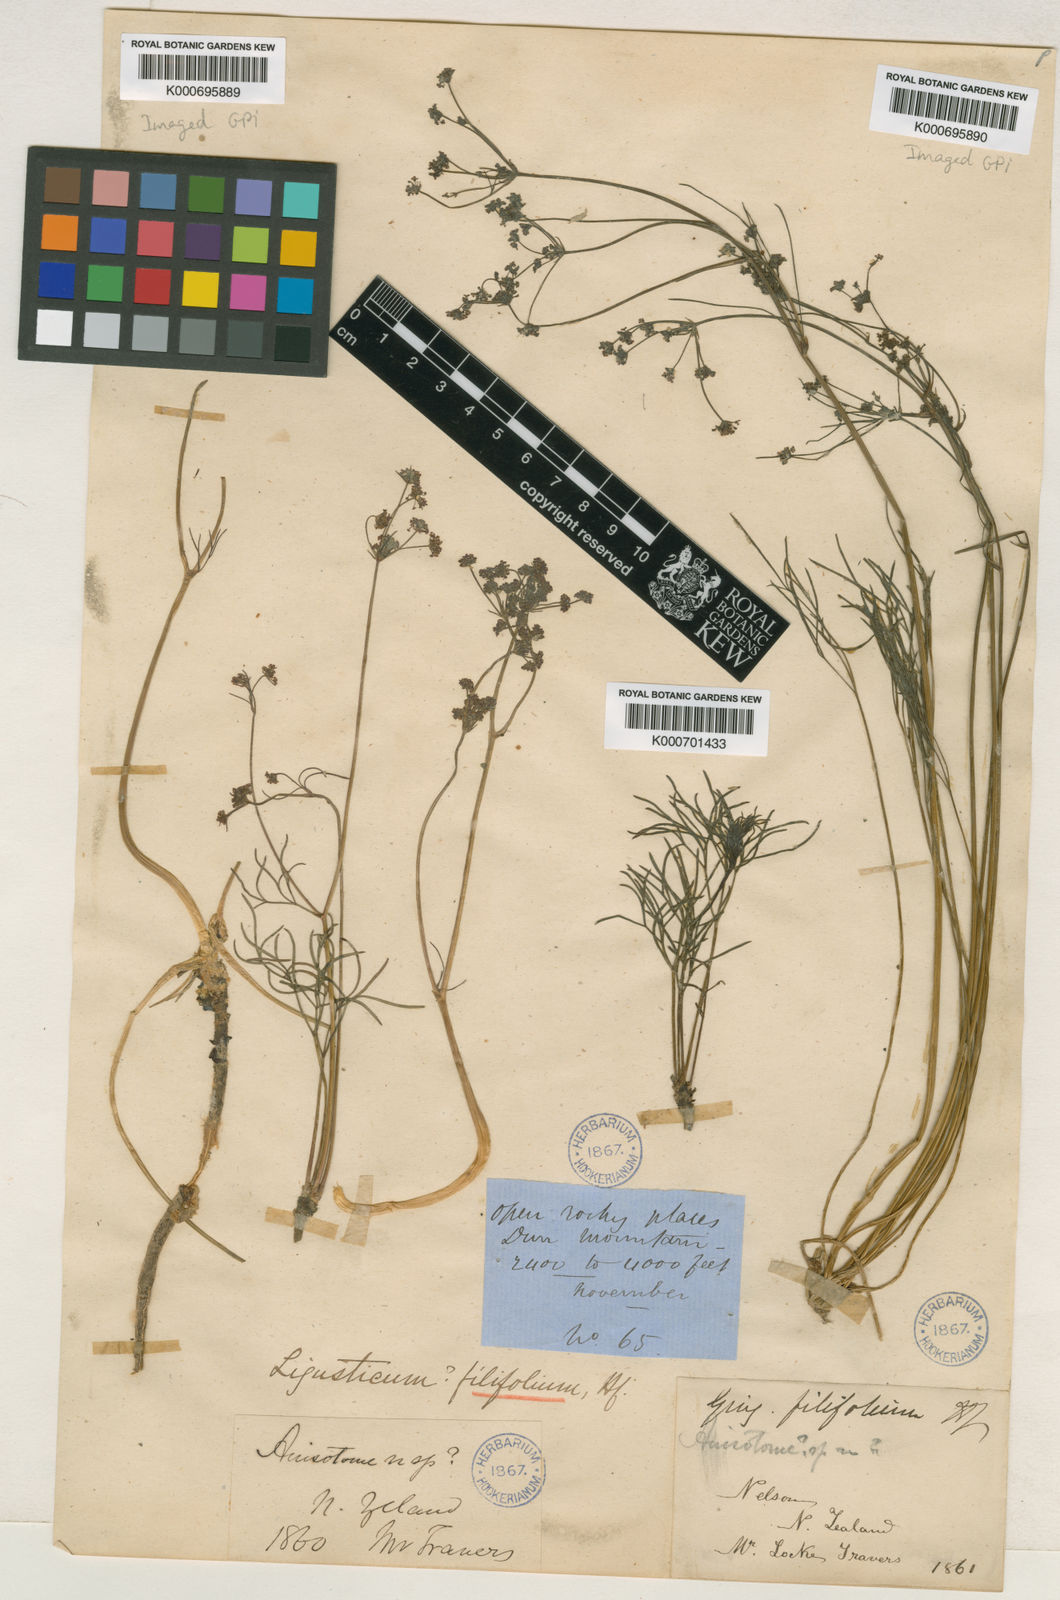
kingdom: Plantae
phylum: Tracheophyta
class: Magnoliopsida
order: Apiales
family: Apiaceae
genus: Anisotome
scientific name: Anisotome filifolia
